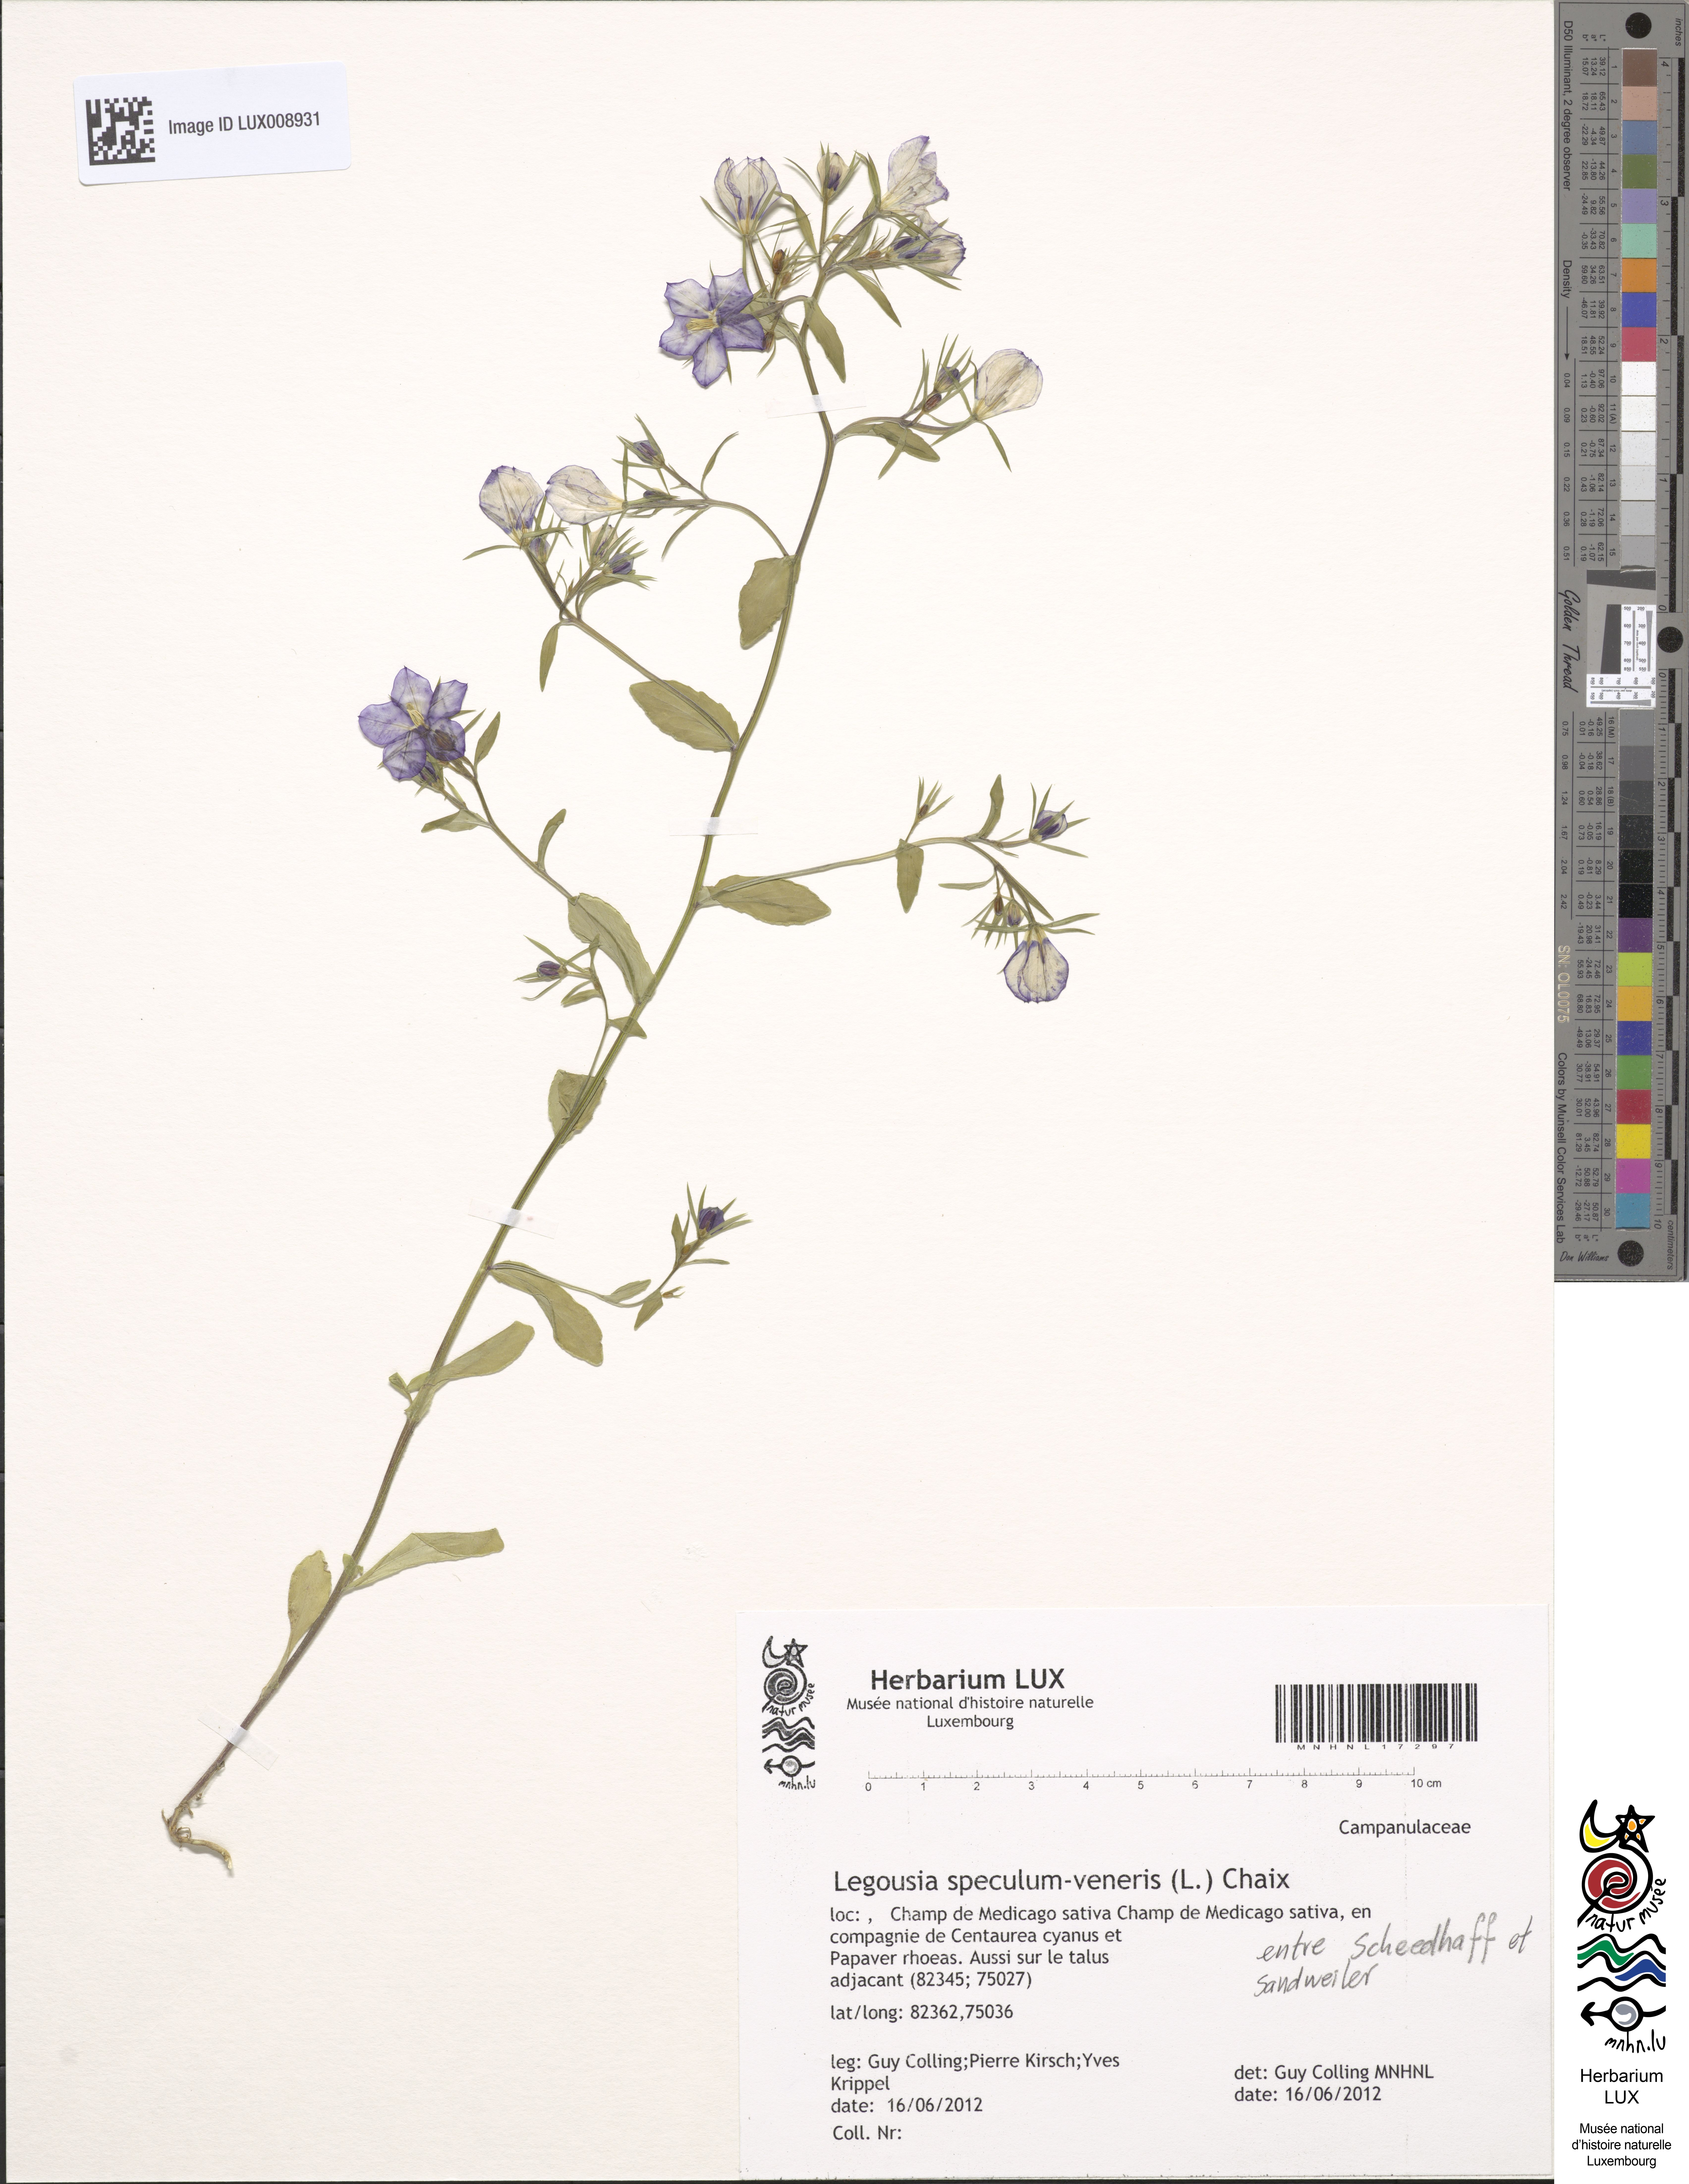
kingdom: Plantae
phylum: Tracheophyta
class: Magnoliopsida
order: Asterales
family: Campanulaceae
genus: Legousia
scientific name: Legousia speculum-veneris
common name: Large venus's-looking-glass
